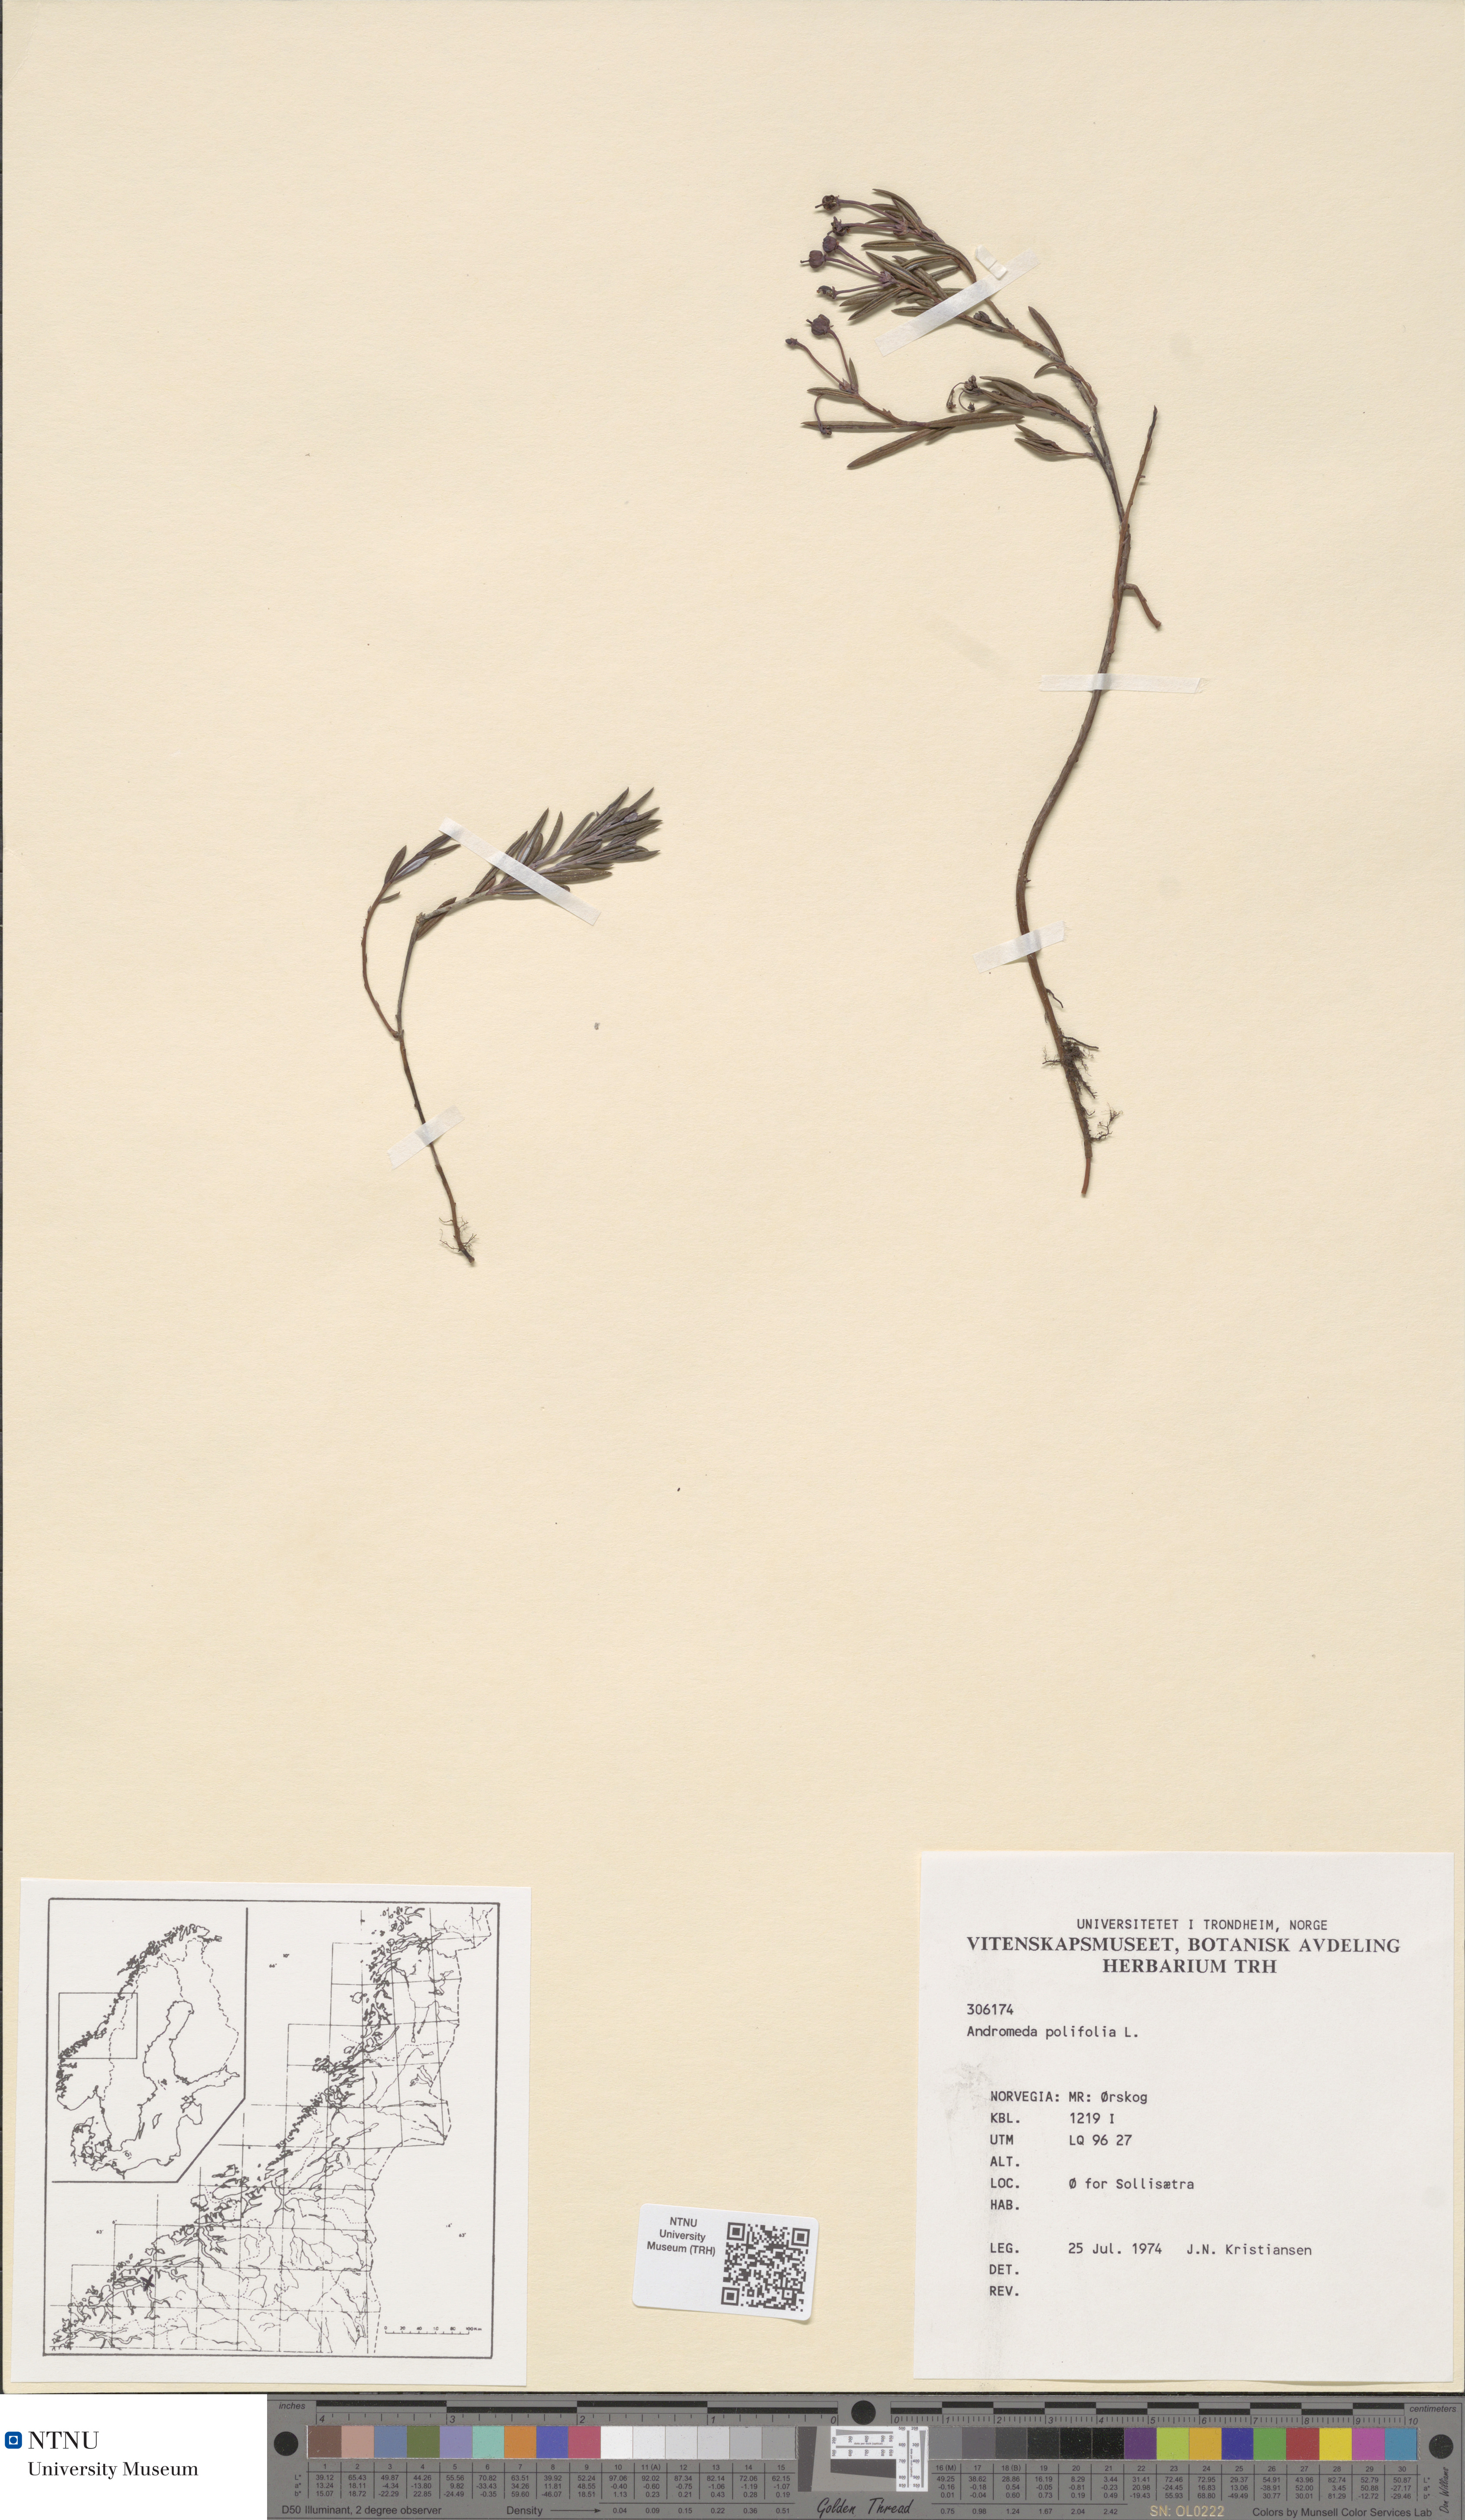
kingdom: Plantae
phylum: Tracheophyta
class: Magnoliopsida
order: Ericales
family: Ericaceae
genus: Andromeda
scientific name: Andromeda polifolia
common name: Bog-rosemary
